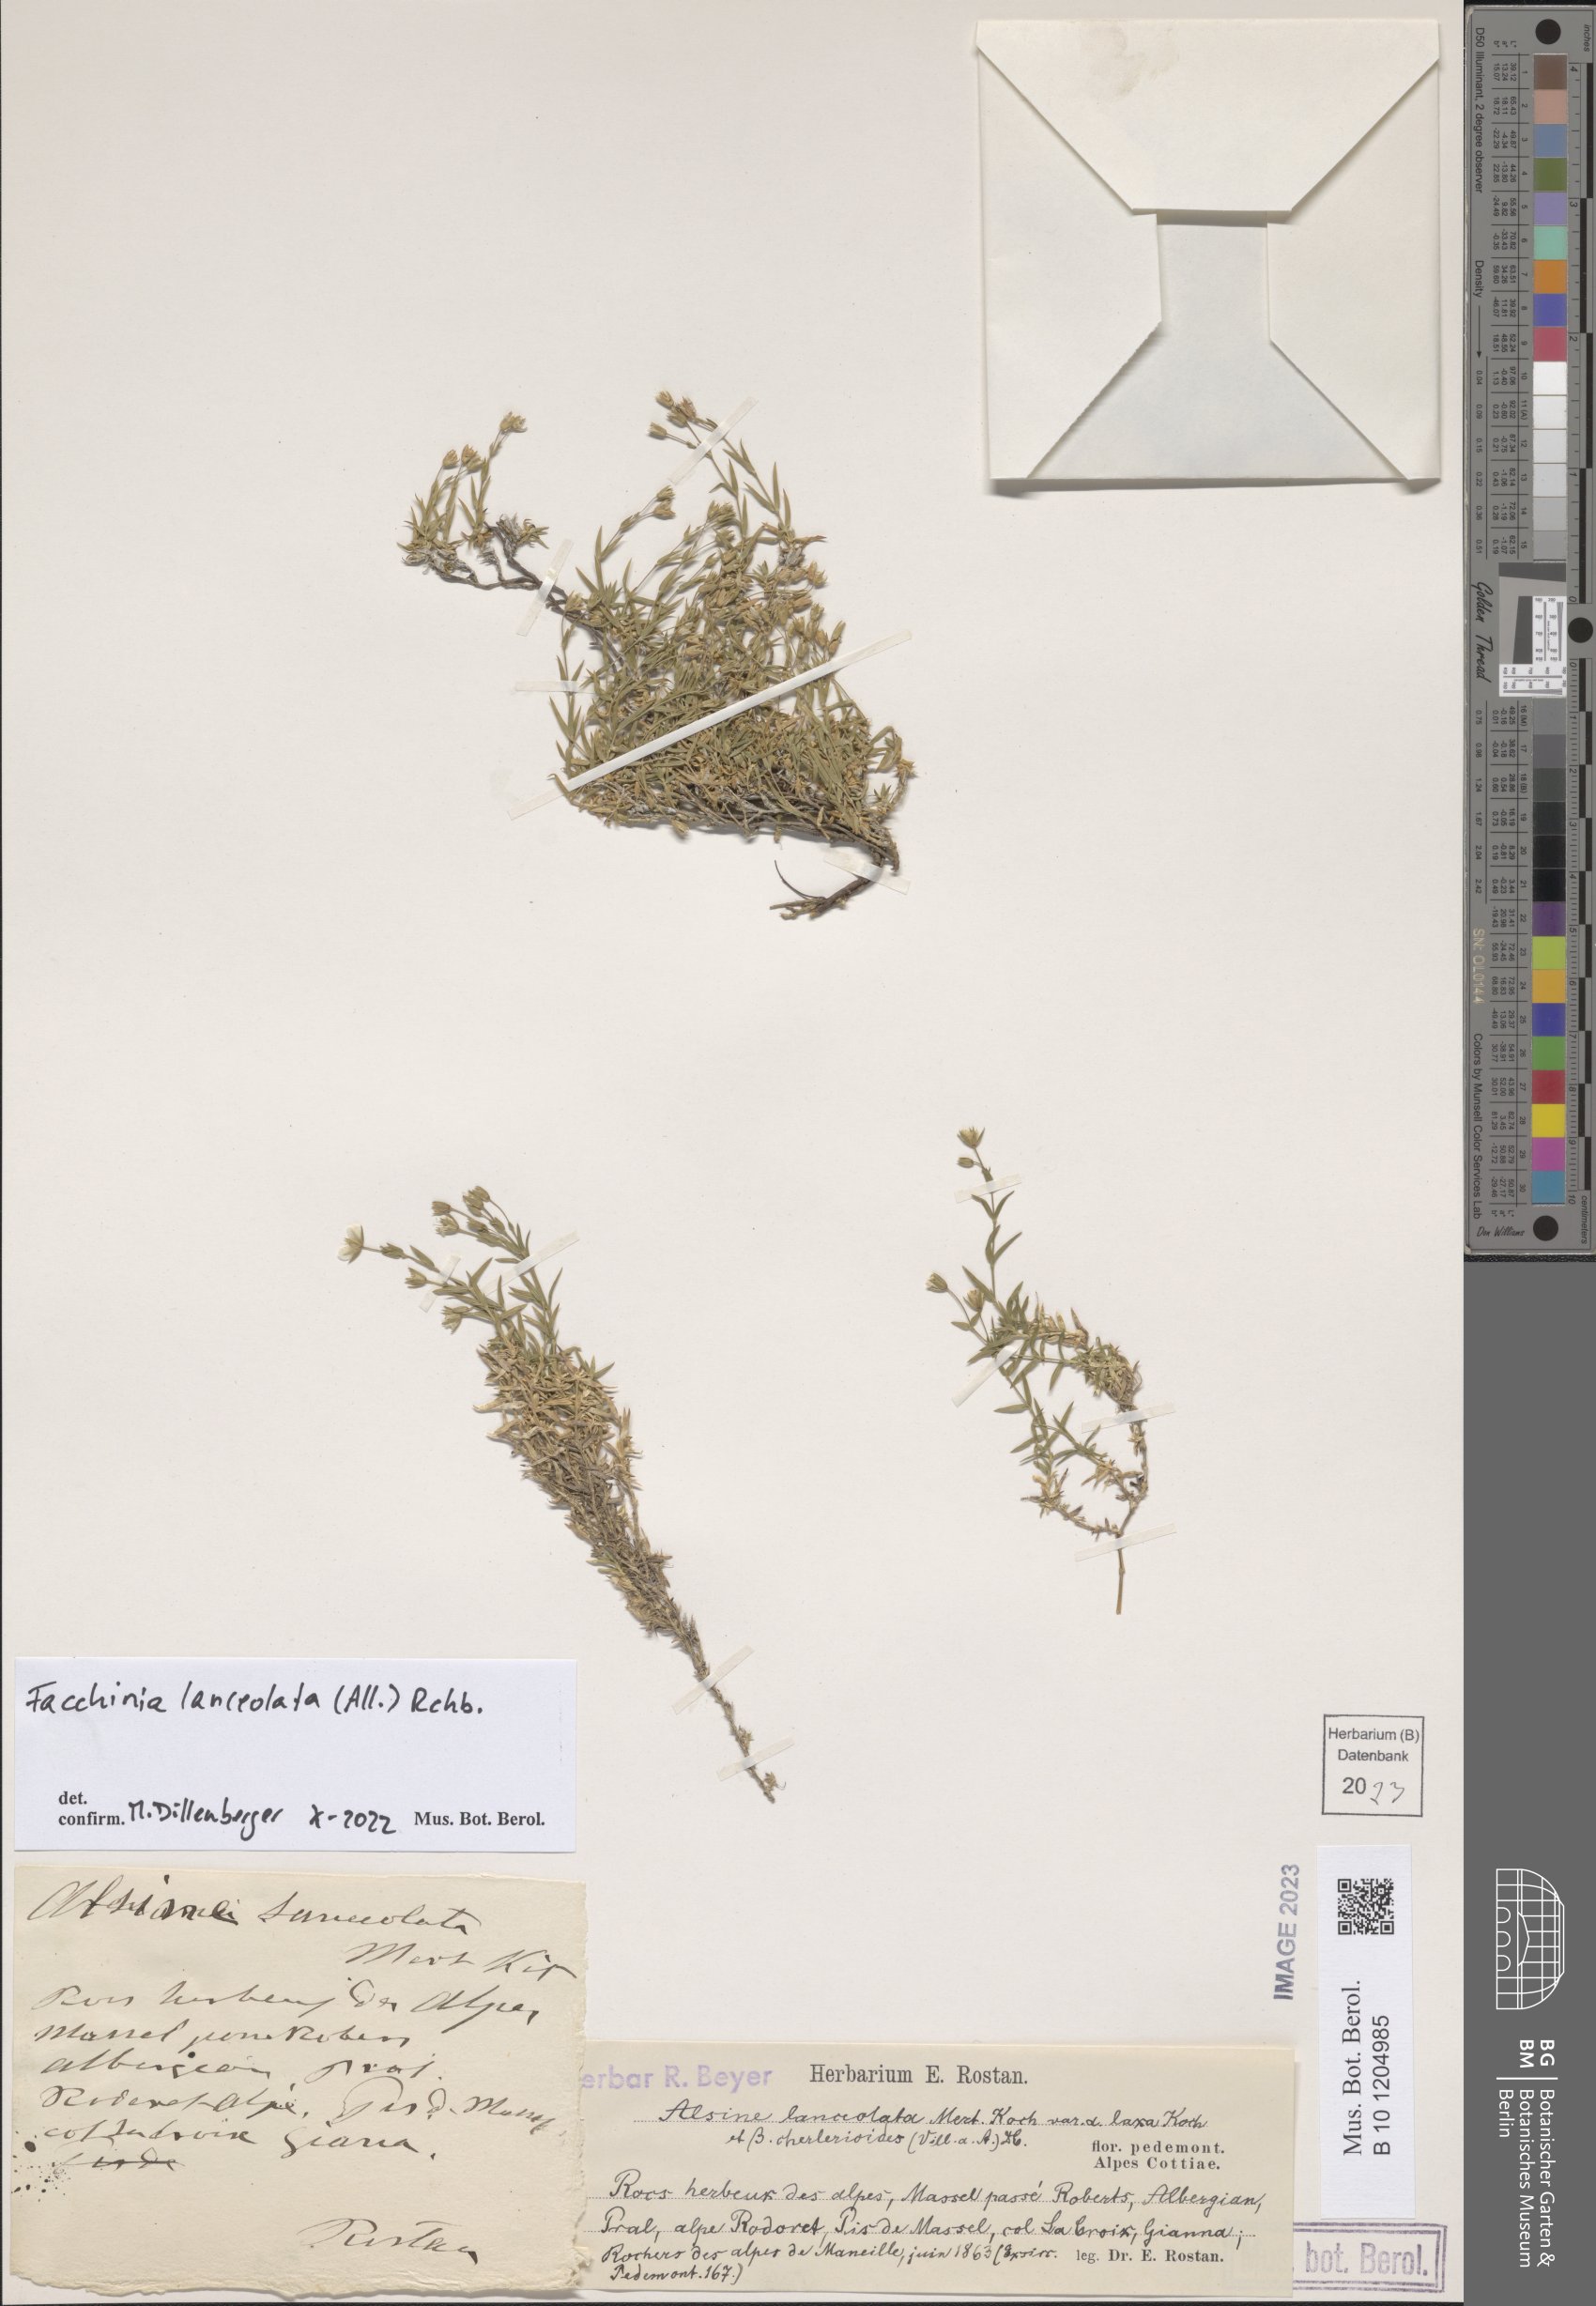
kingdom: Plantae
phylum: Tracheophyta
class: Magnoliopsida
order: Caryophyllales
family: Caryophyllaceae
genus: Facchinia
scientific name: Facchinia lanceolata
